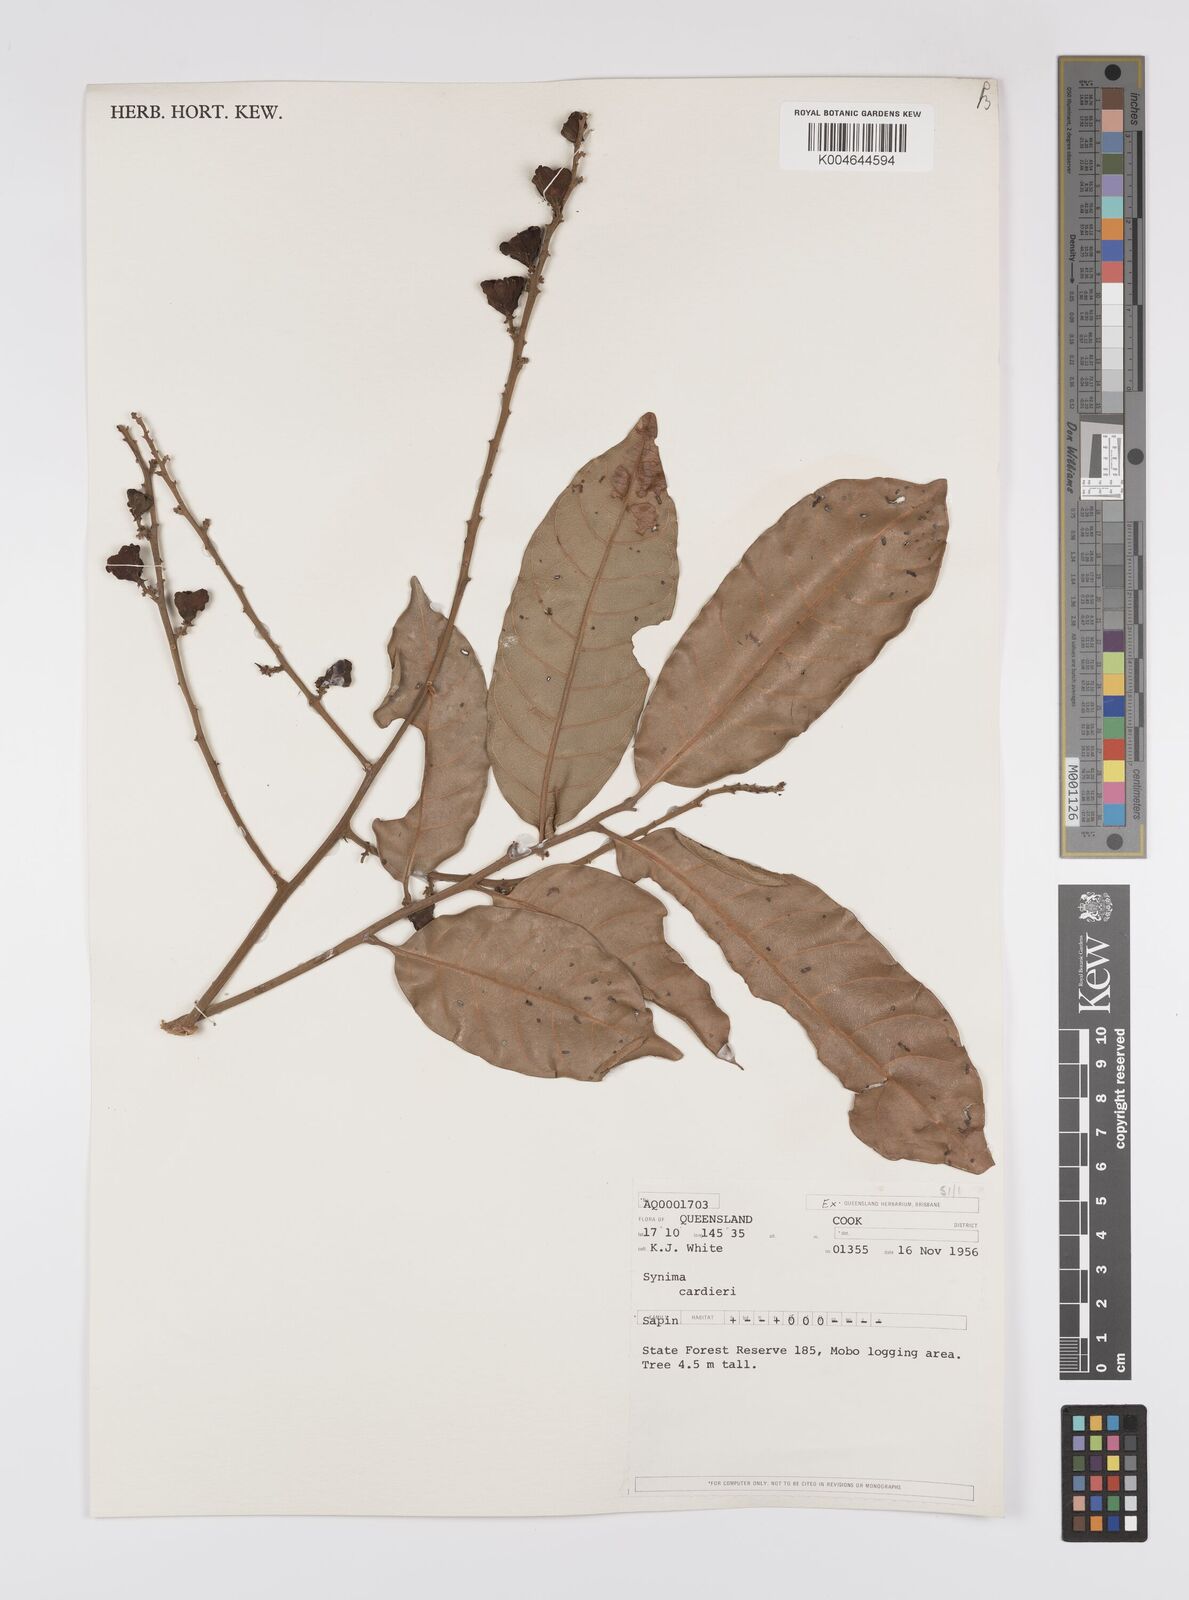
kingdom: Plantae
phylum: Tracheophyta
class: Magnoliopsida
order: Sapindales
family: Sapindaceae
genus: Synima
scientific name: Synima
